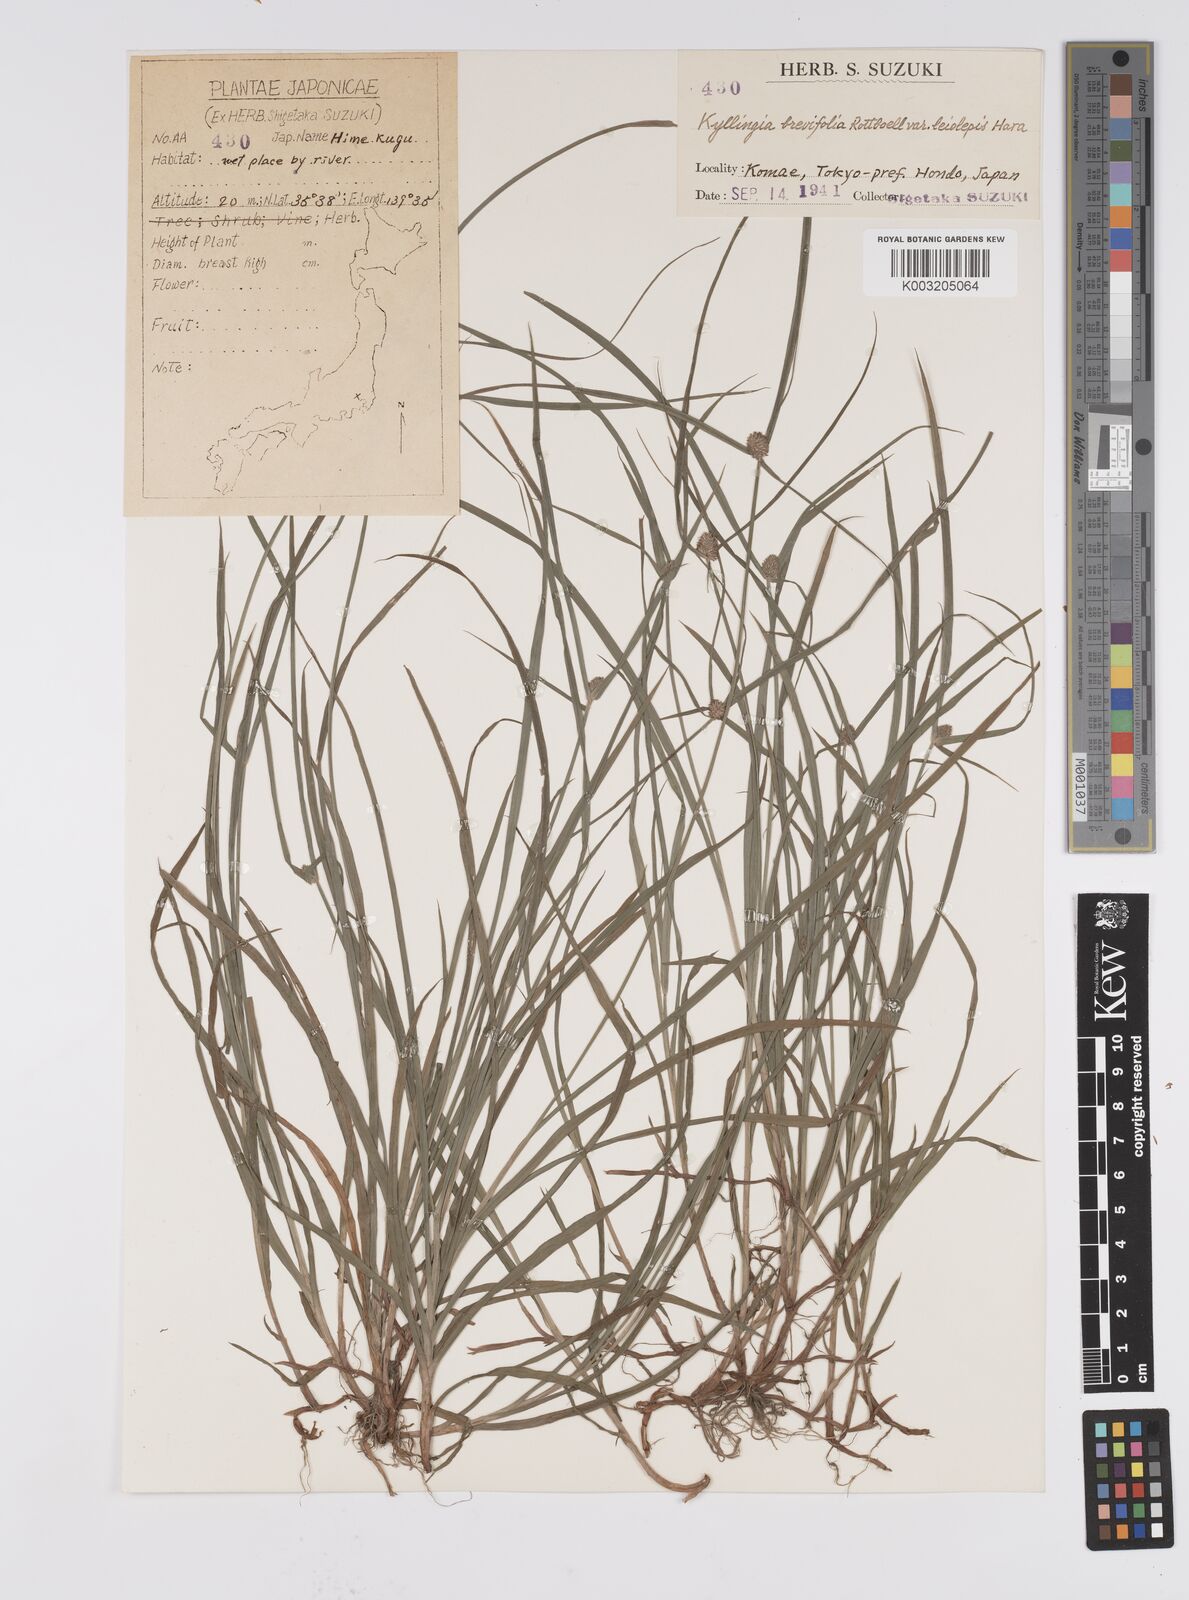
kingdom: Plantae
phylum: Tracheophyta
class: Liliopsida
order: Poales
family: Cyperaceae
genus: Cyperus
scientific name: Cyperus brevifolius
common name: Globe kyllinga
